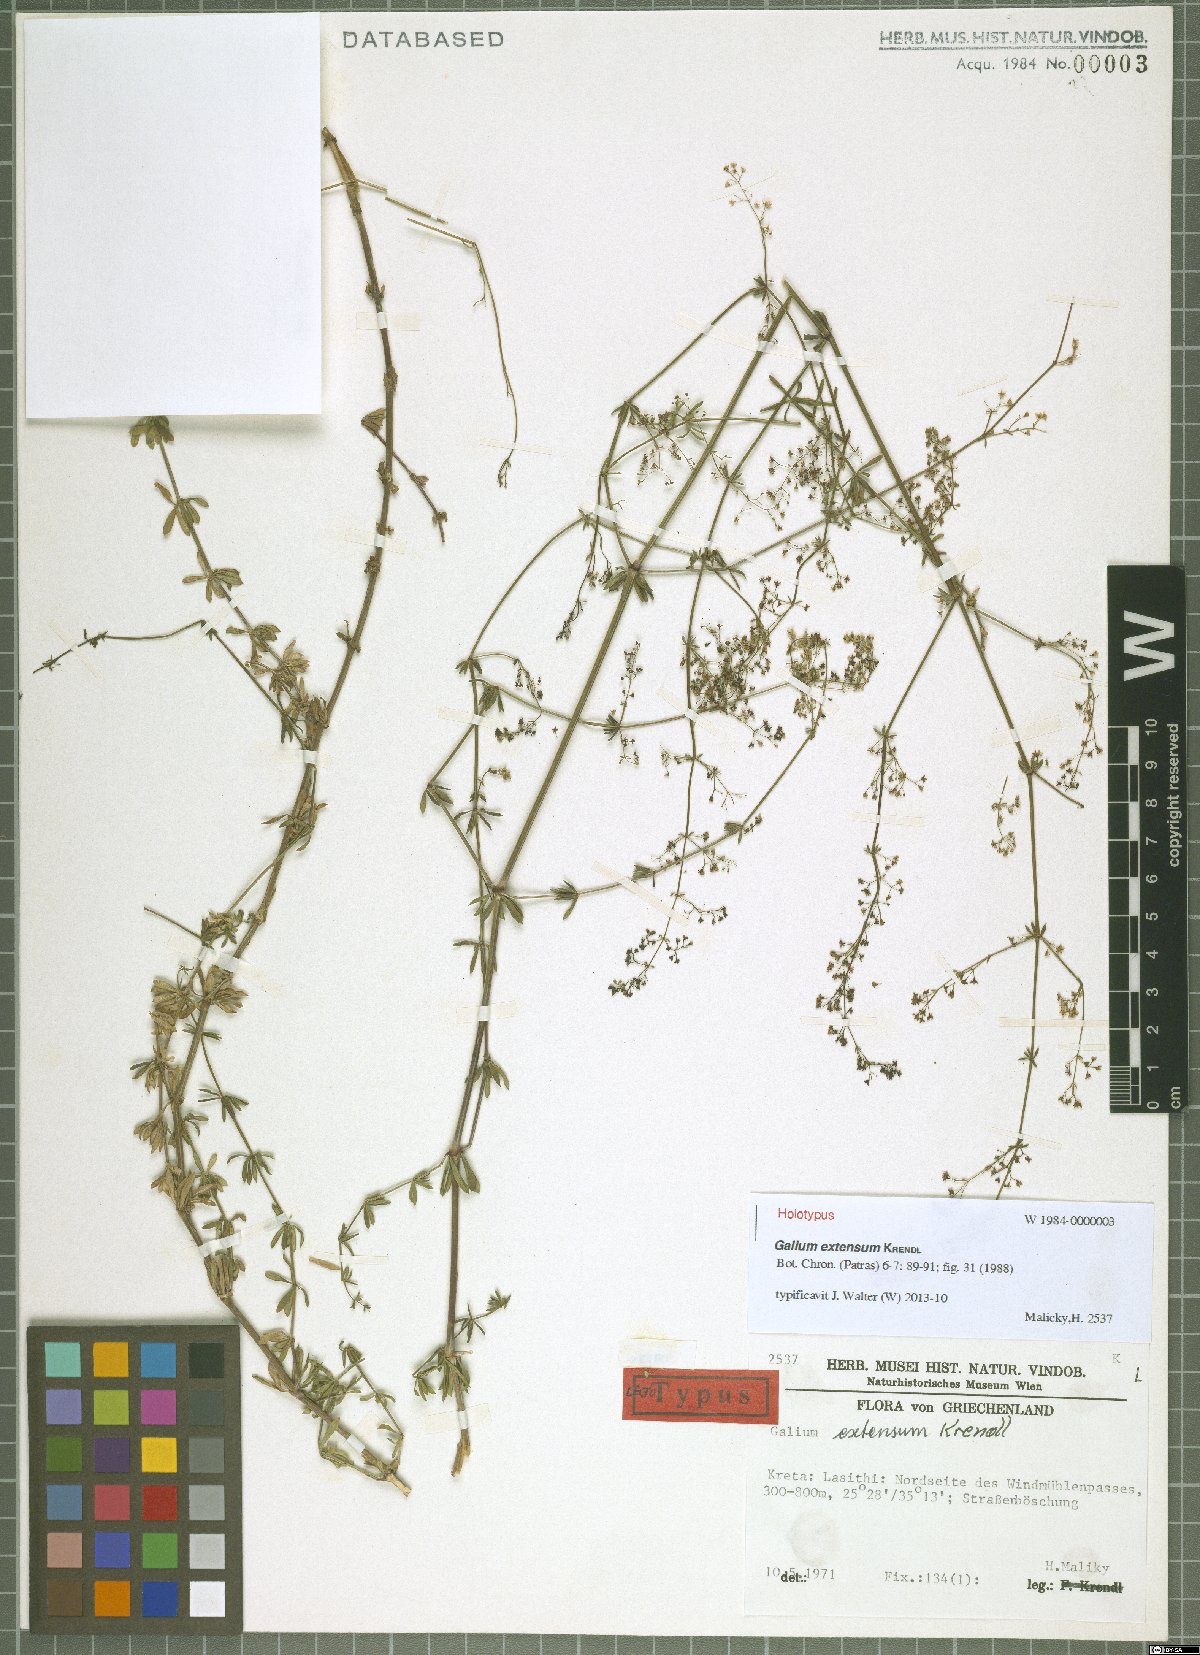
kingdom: Plantae
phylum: Tracheophyta
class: Magnoliopsida
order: Gentianales
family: Rubiaceae
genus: Galium
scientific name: Galium extensum
